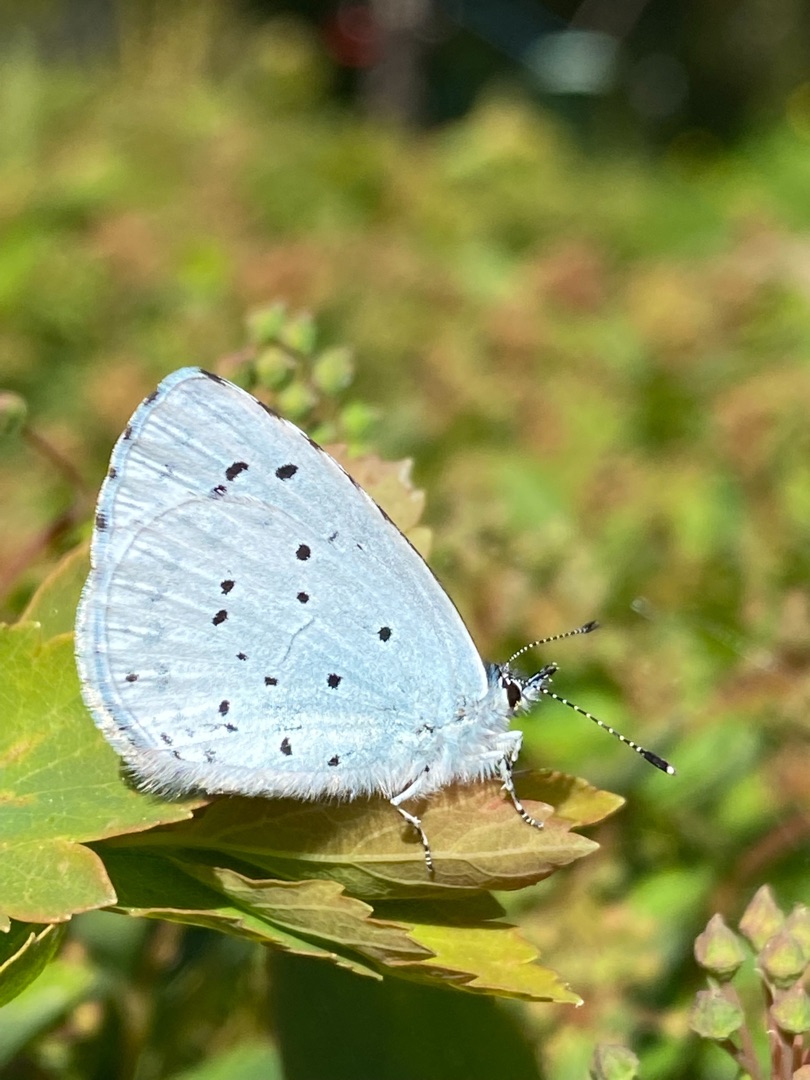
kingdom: Animalia
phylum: Arthropoda
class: Insecta
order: Lepidoptera
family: Lycaenidae
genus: Celastrina
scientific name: Celastrina argiolus
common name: Skovblåfugl
